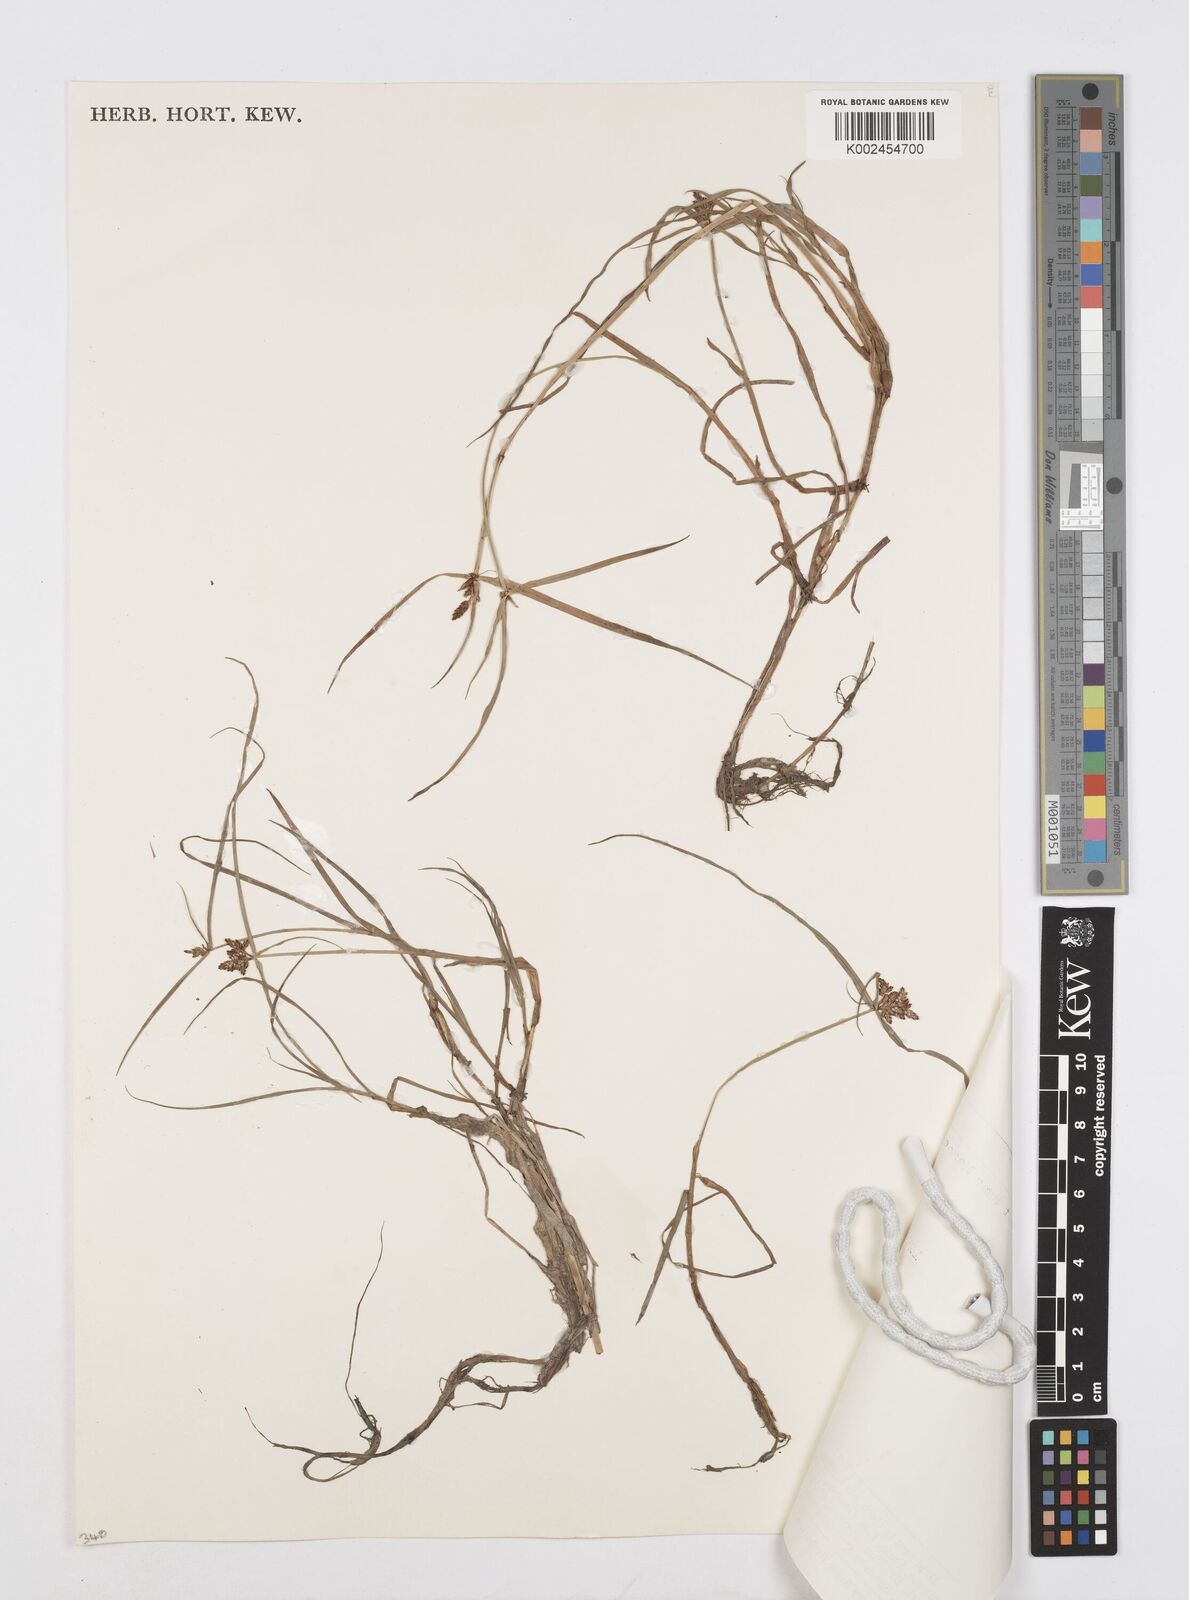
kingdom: Plantae
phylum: Tracheophyta
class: Liliopsida
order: Poales
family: Cyperaceae
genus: Cyperus
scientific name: Cyperus sanguinolentus
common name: Purpleglume flatsedge
